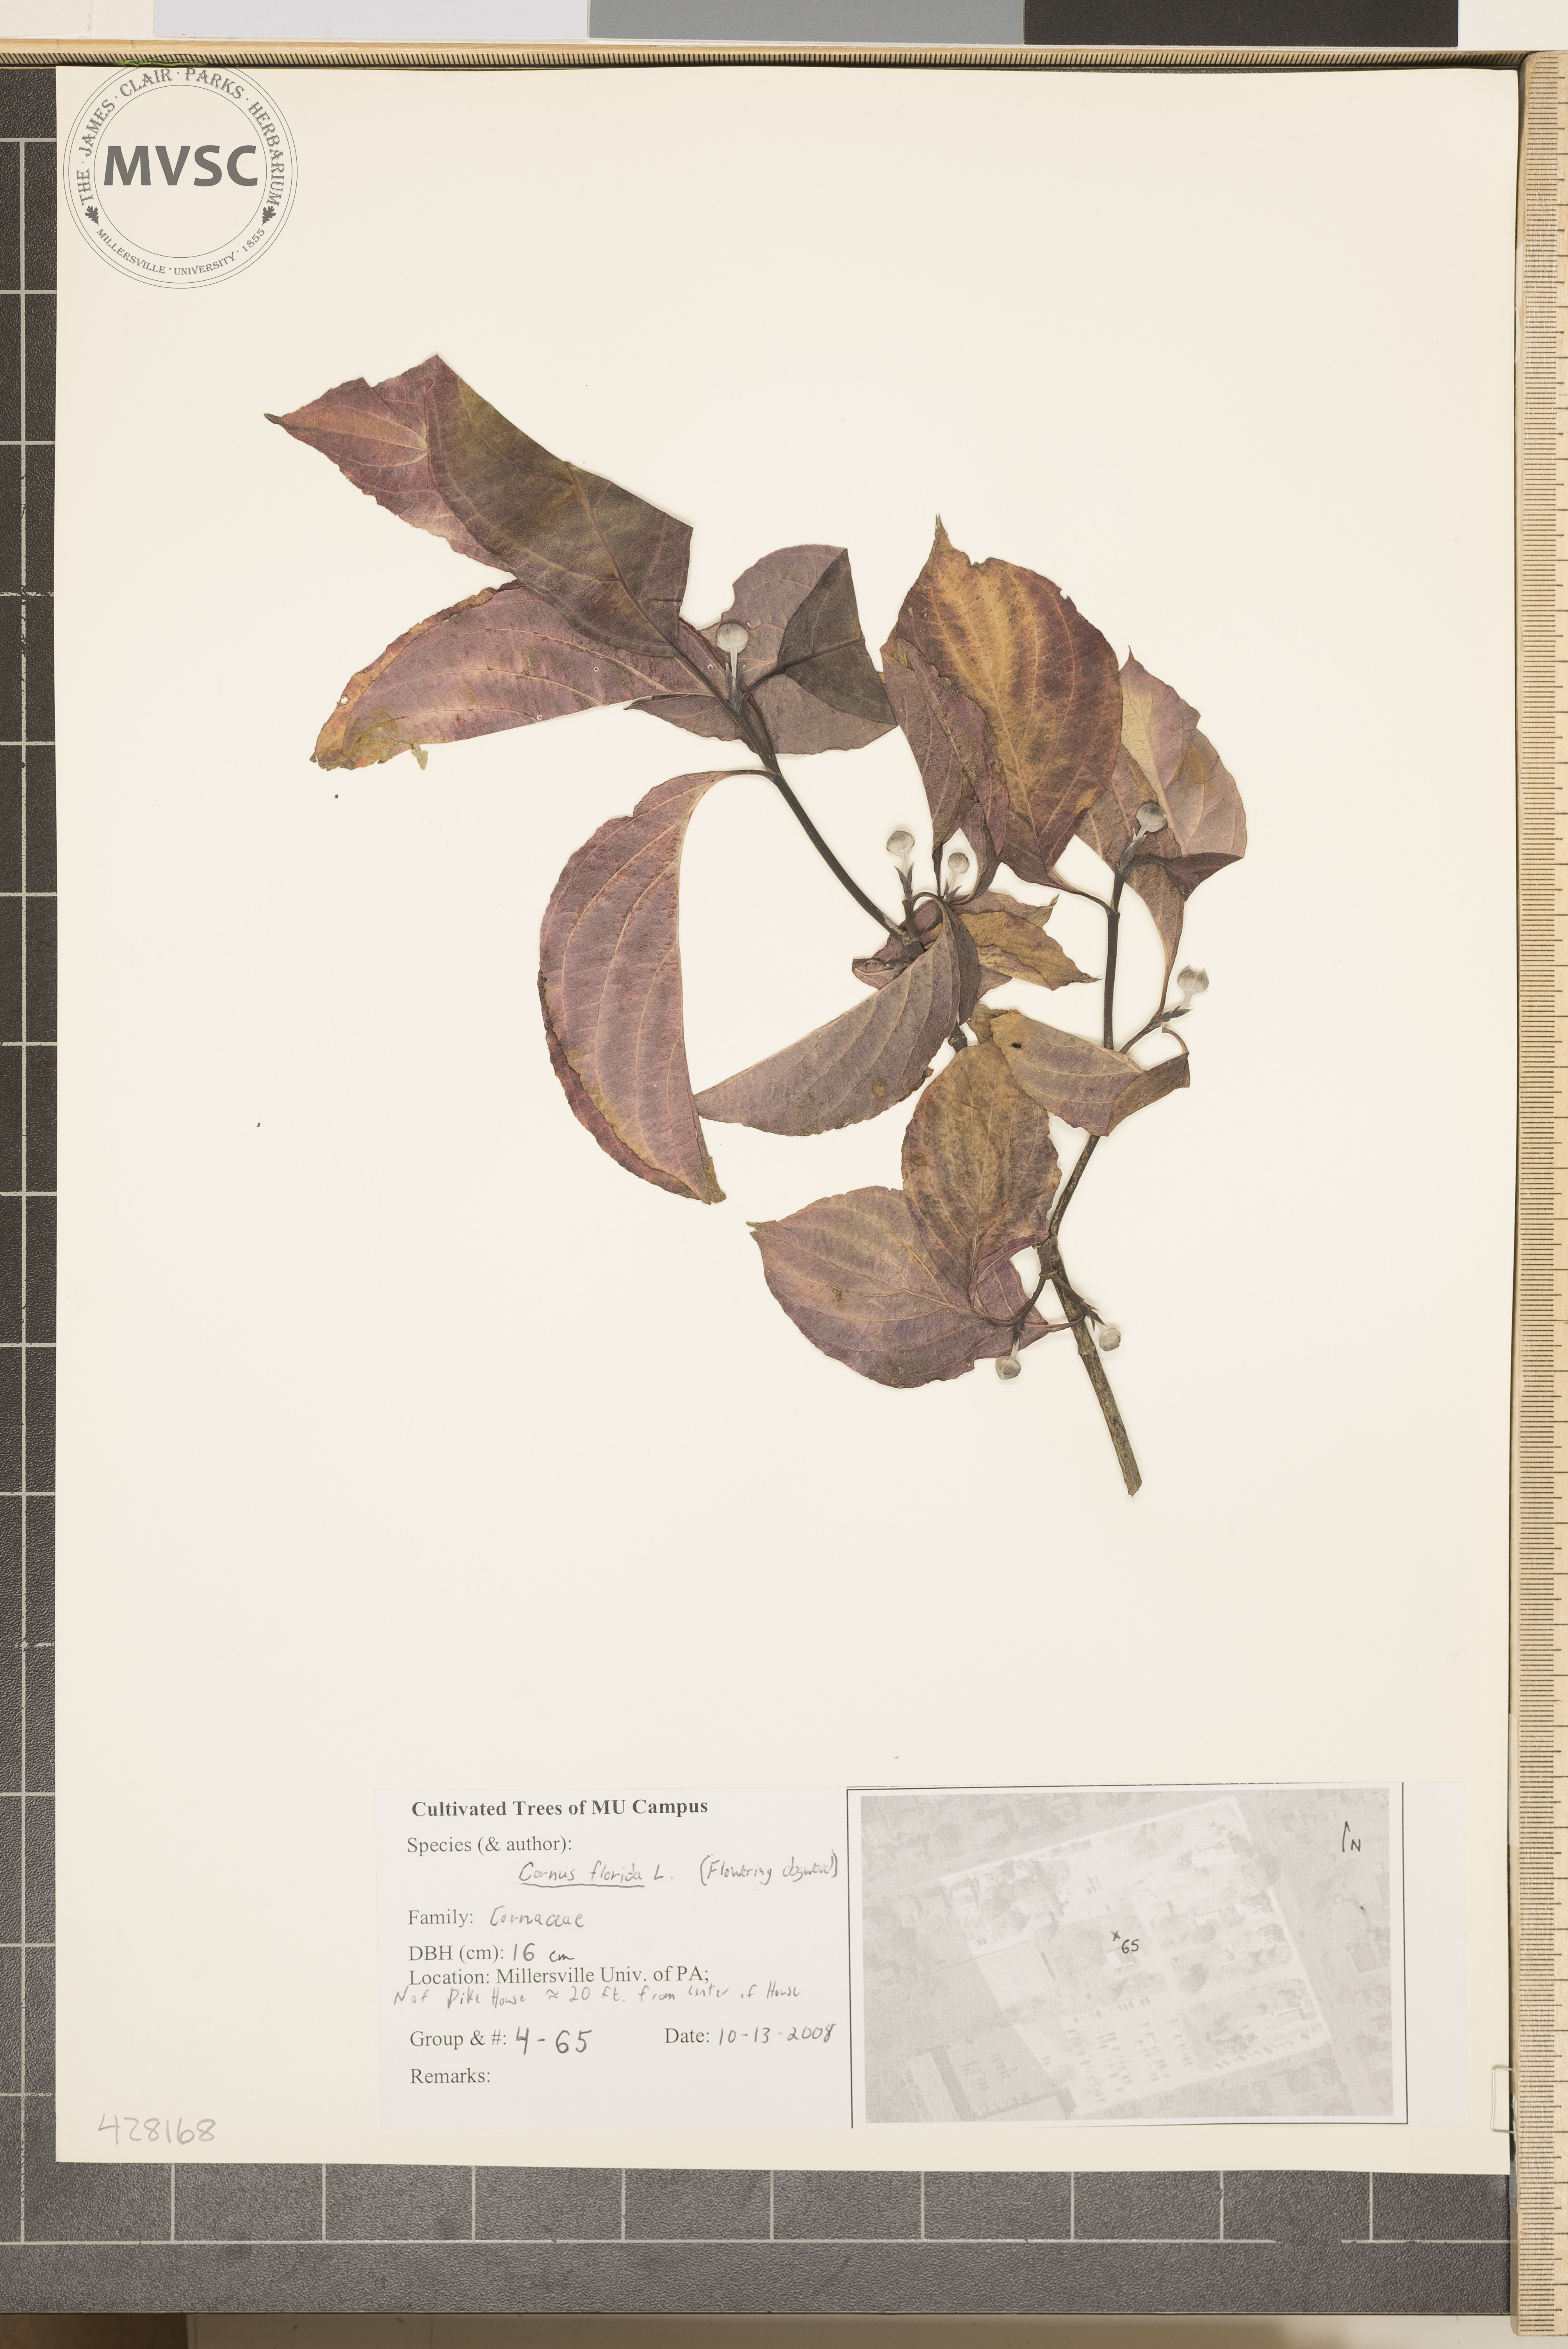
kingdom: Plantae
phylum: Tracheophyta
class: Magnoliopsida
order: Cornales
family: Cornaceae
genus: Cornus
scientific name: Cornus florida
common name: Flowering Dogwood
